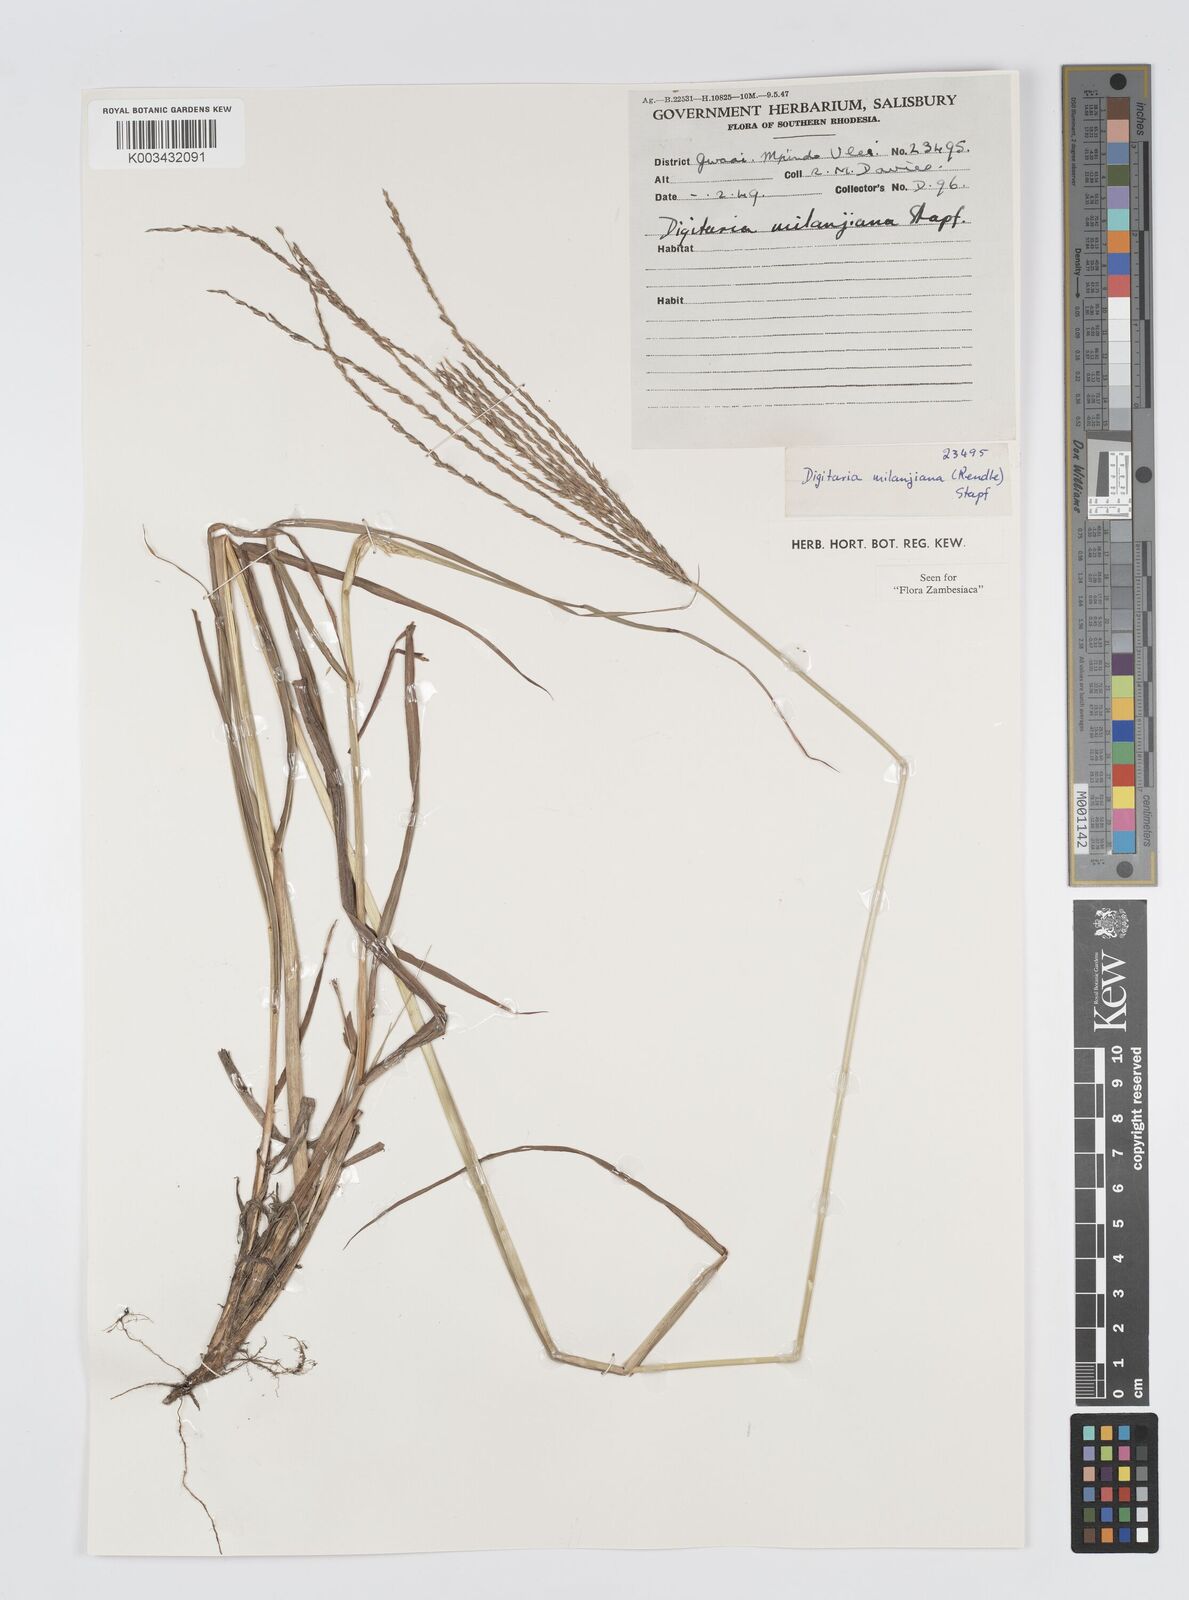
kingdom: Plantae
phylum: Tracheophyta
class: Liliopsida
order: Poales
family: Poaceae
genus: Digitaria
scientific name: Digitaria milanjiana
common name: Madagascar crabgrass
